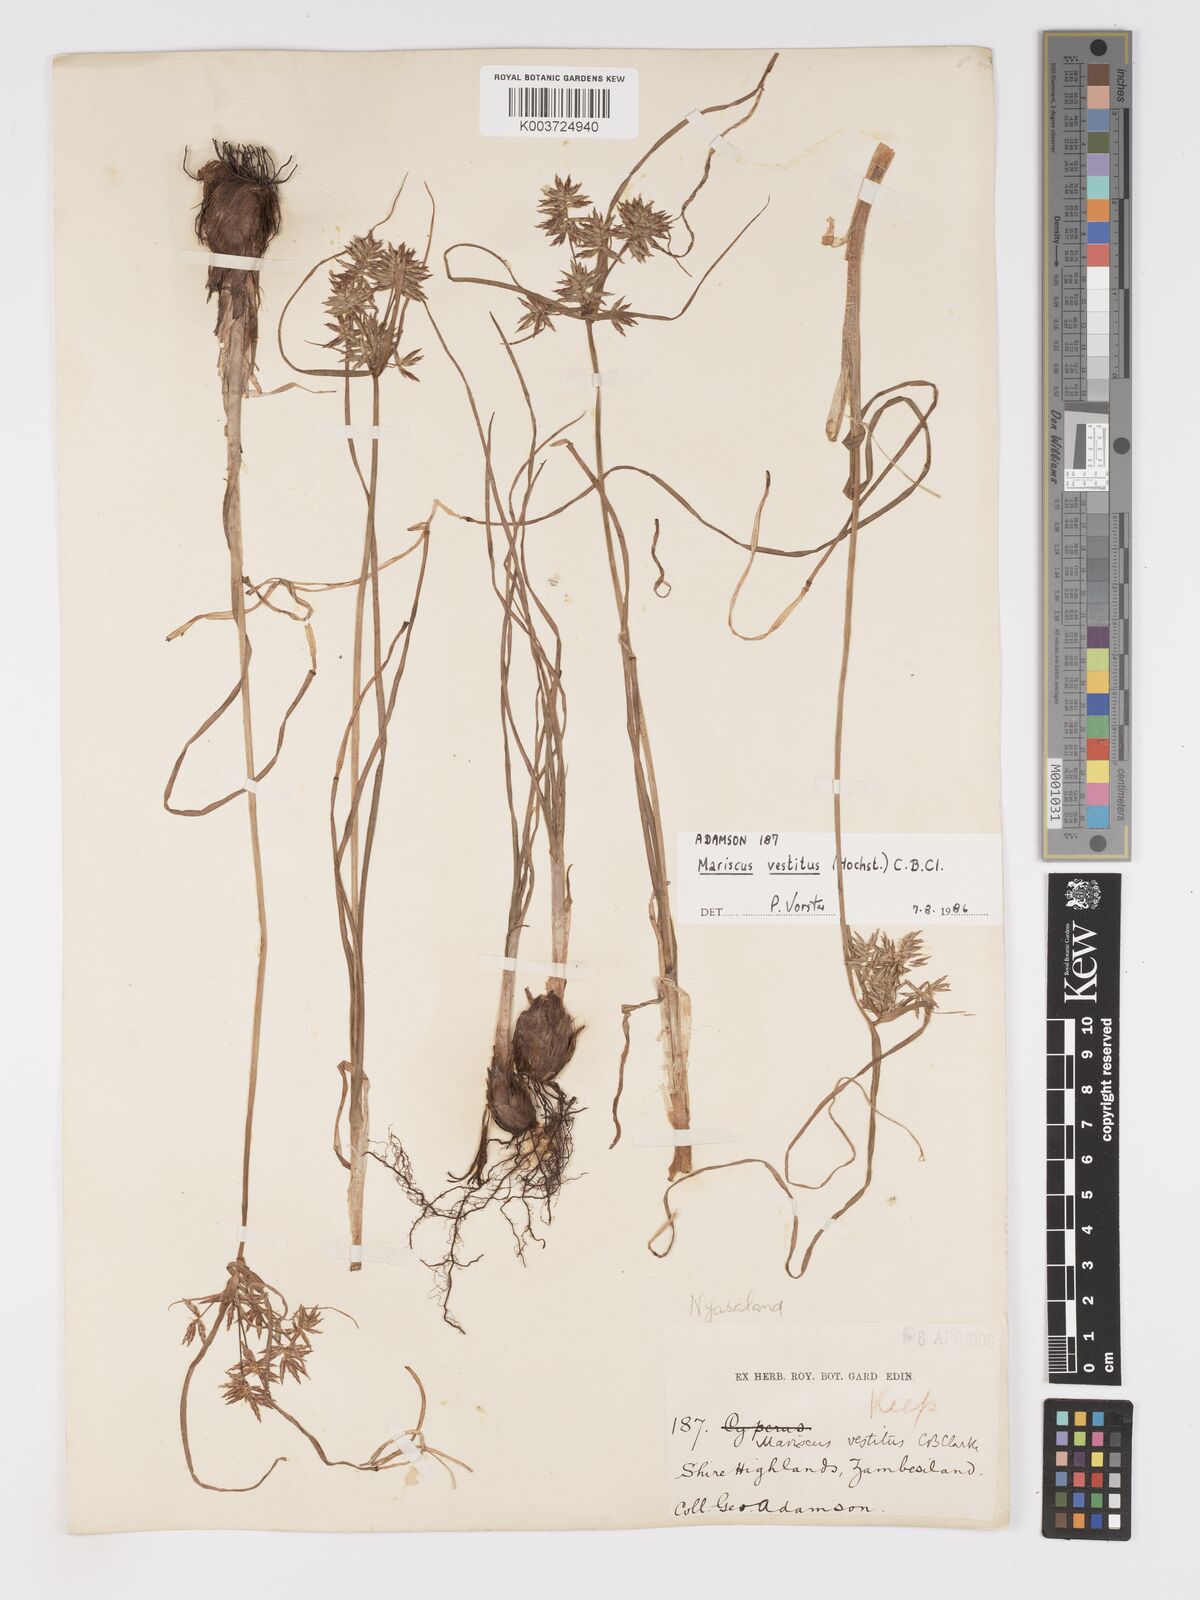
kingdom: Plantae
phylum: Tracheophyta
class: Liliopsida
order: Poales
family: Cyperaceae
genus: Cyperus
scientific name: Cyperus vestitus
